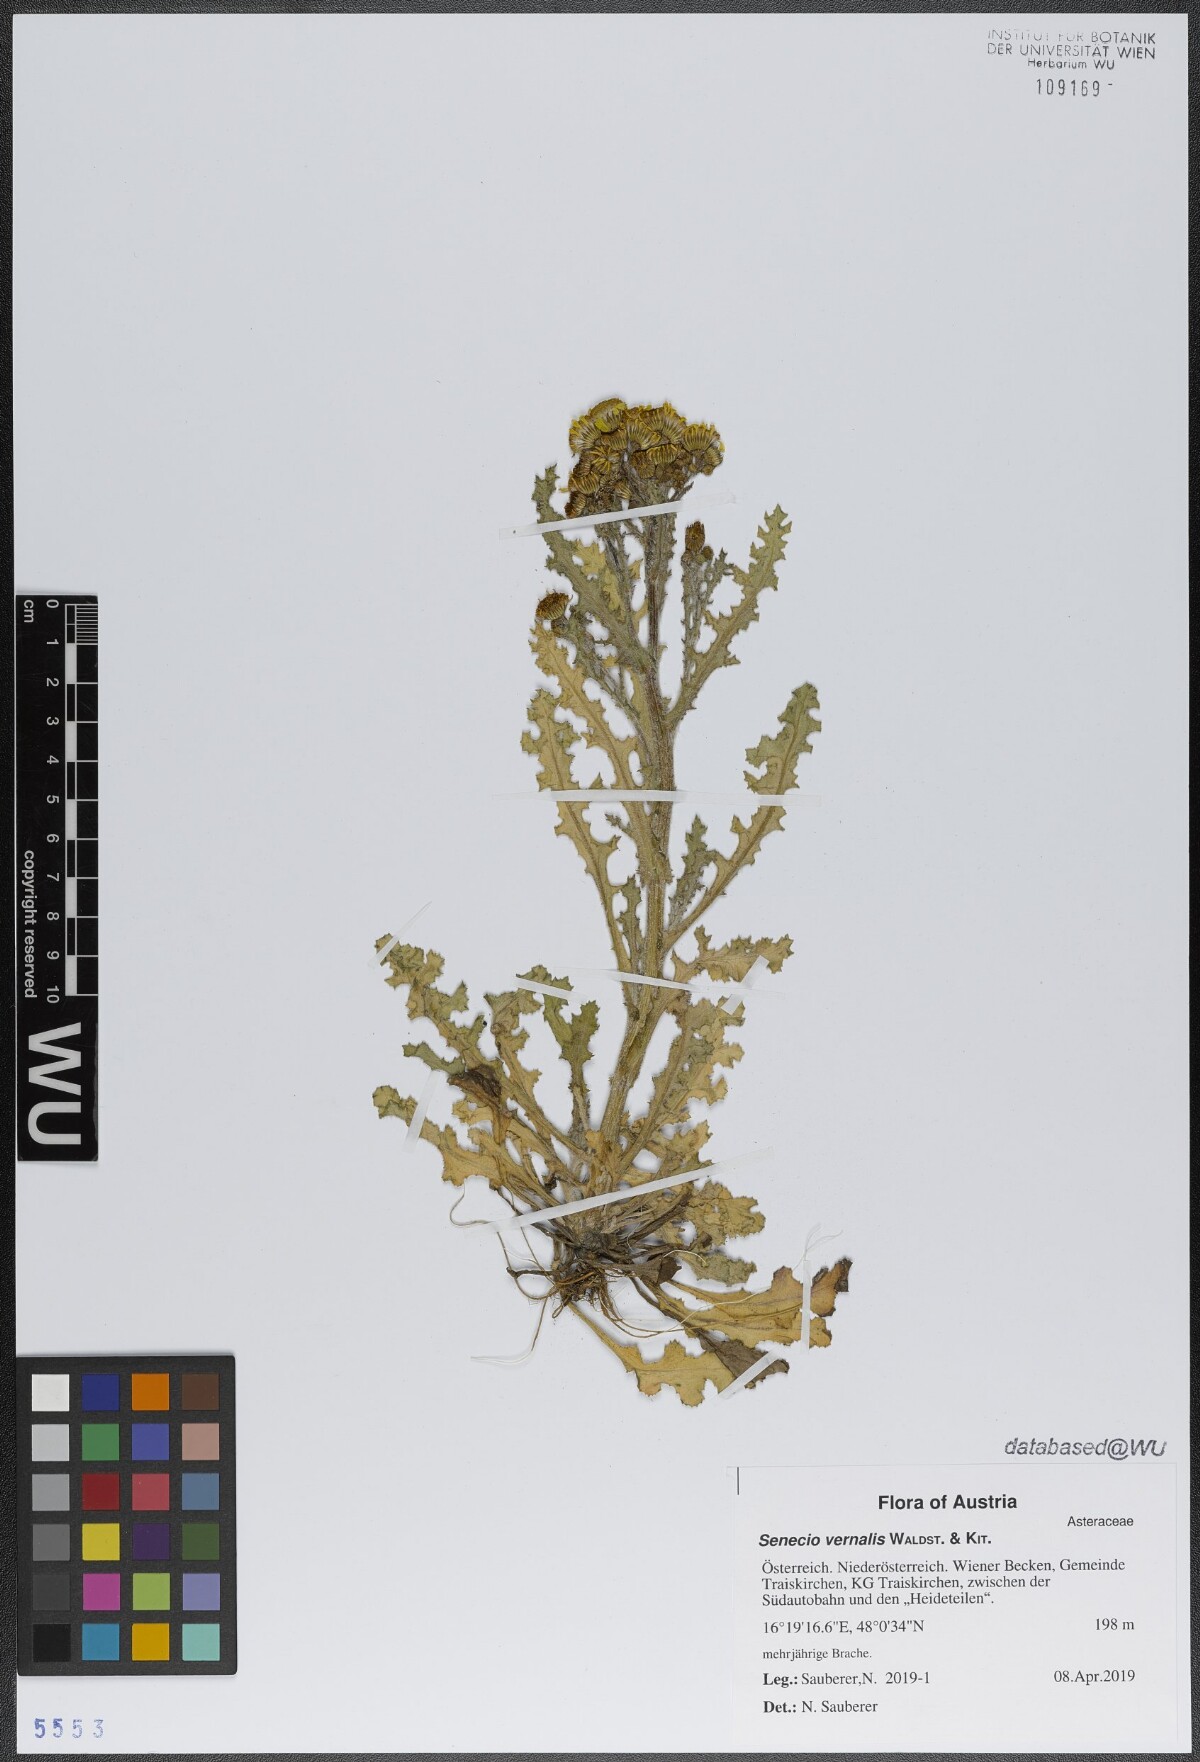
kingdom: Plantae
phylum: Tracheophyta
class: Magnoliopsida
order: Asterales
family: Asteraceae
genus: Senecio
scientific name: Senecio vernalis
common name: Eastern groundsel
